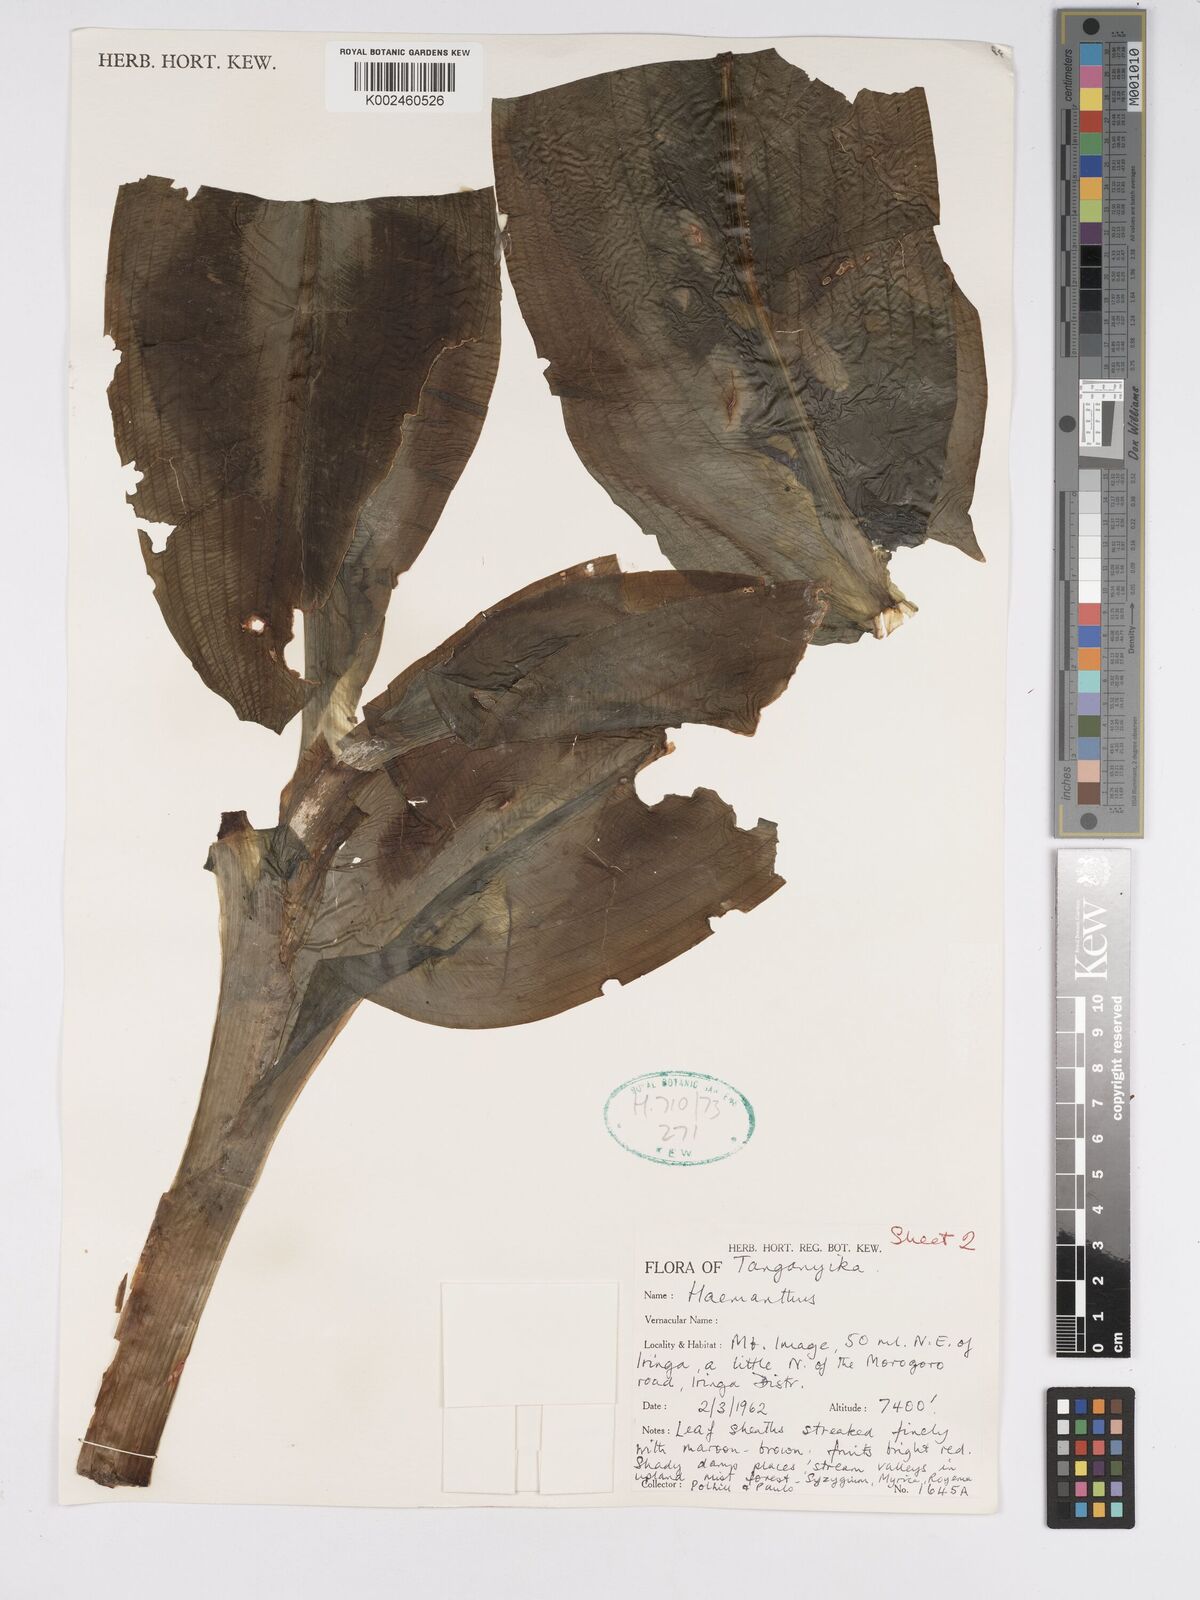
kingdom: Plantae
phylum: Tracheophyta
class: Liliopsida
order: Asparagales
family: Amaryllidaceae
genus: Scadoxus
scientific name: Scadoxus puniceus
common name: Royal-paintbrush
